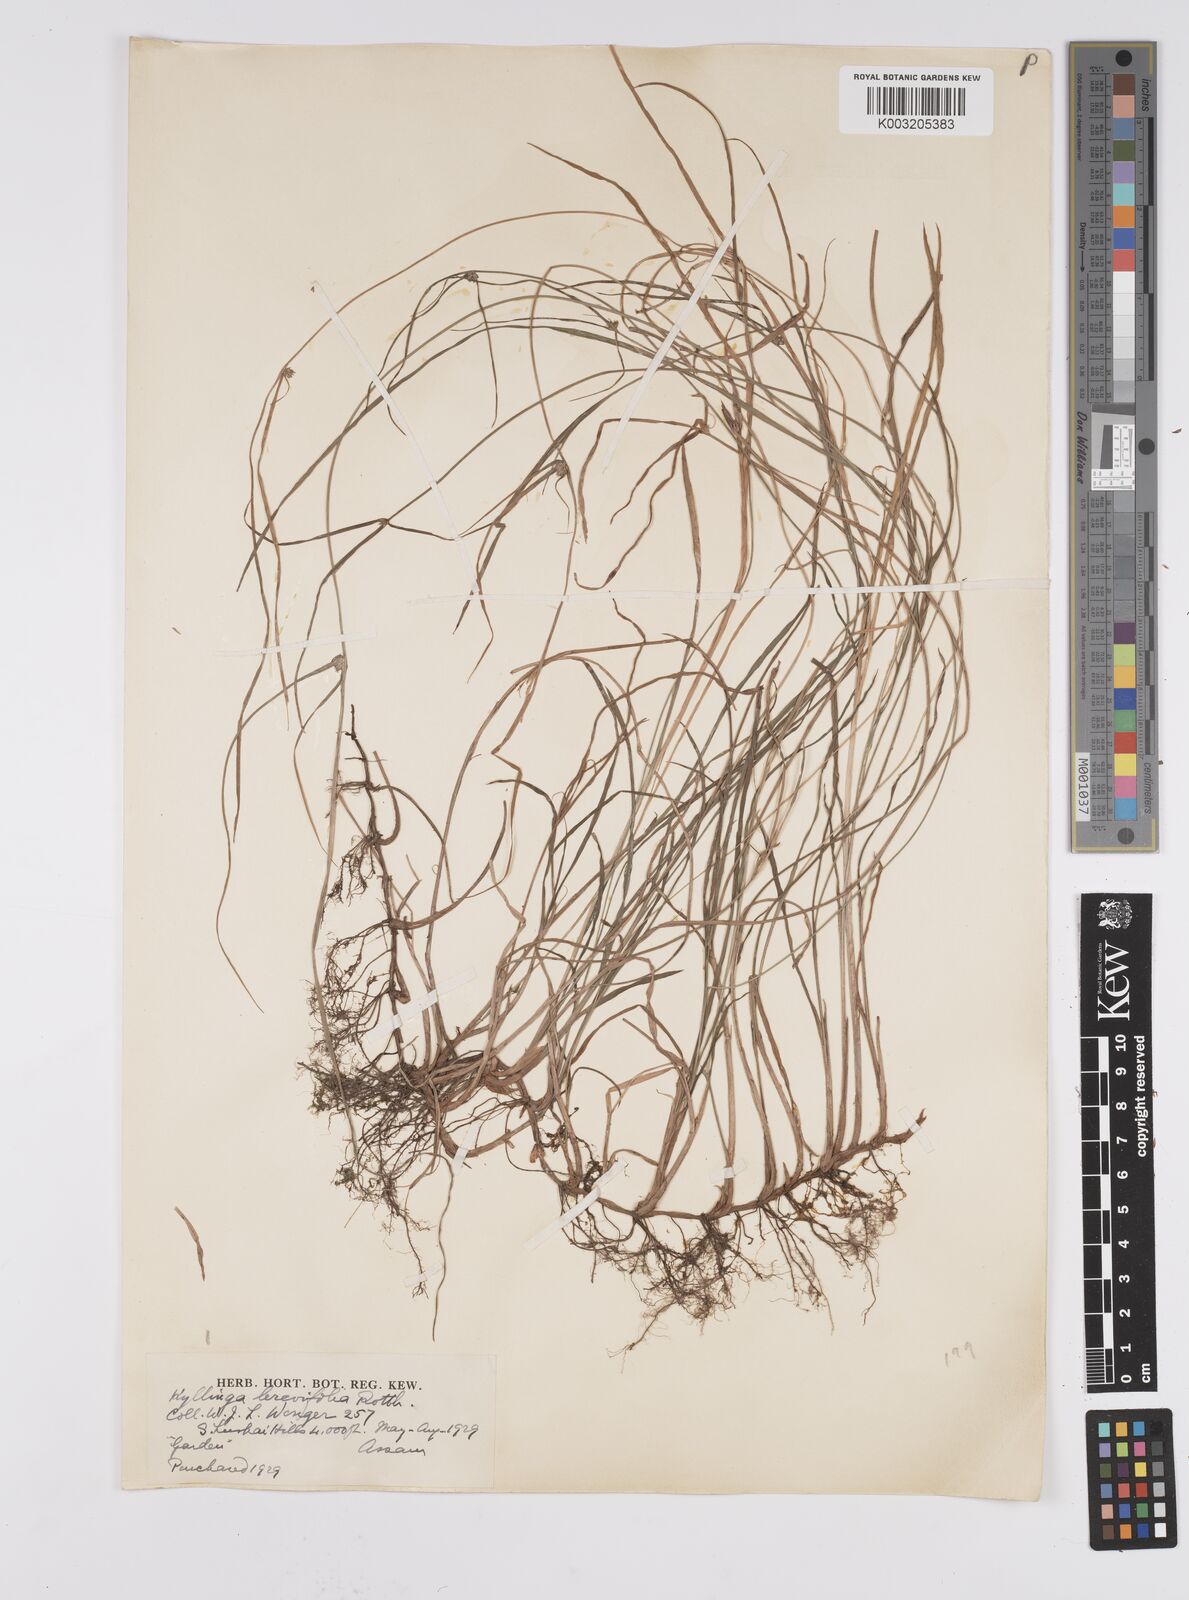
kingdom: Plantae
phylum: Tracheophyta
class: Liliopsida
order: Poales
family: Cyperaceae
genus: Cyperus
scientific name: Cyperus brevifolius
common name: Globe kyllinga
